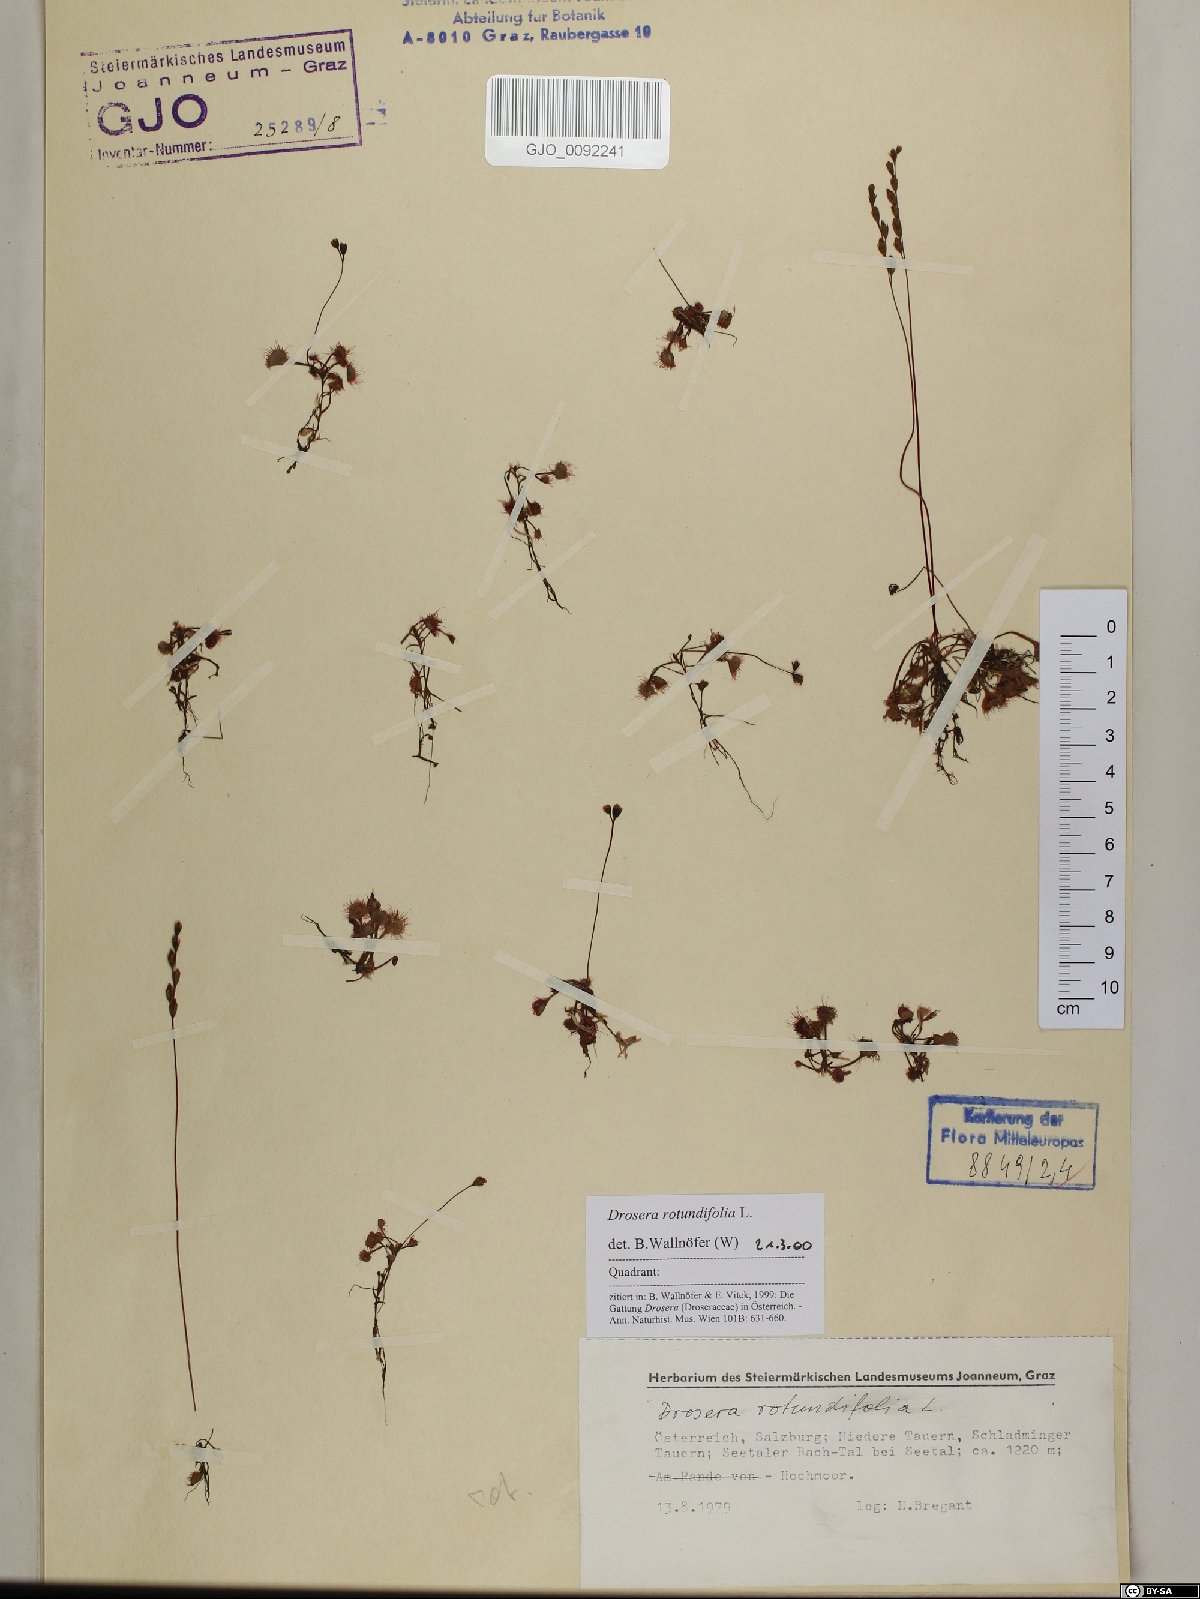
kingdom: Plantae
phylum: Tracheophyta
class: Magnoliopsida
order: Caryophyllales
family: Droseraceae
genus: Drosera
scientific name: Drosera rotundifolia
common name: Round-leaved sundew
